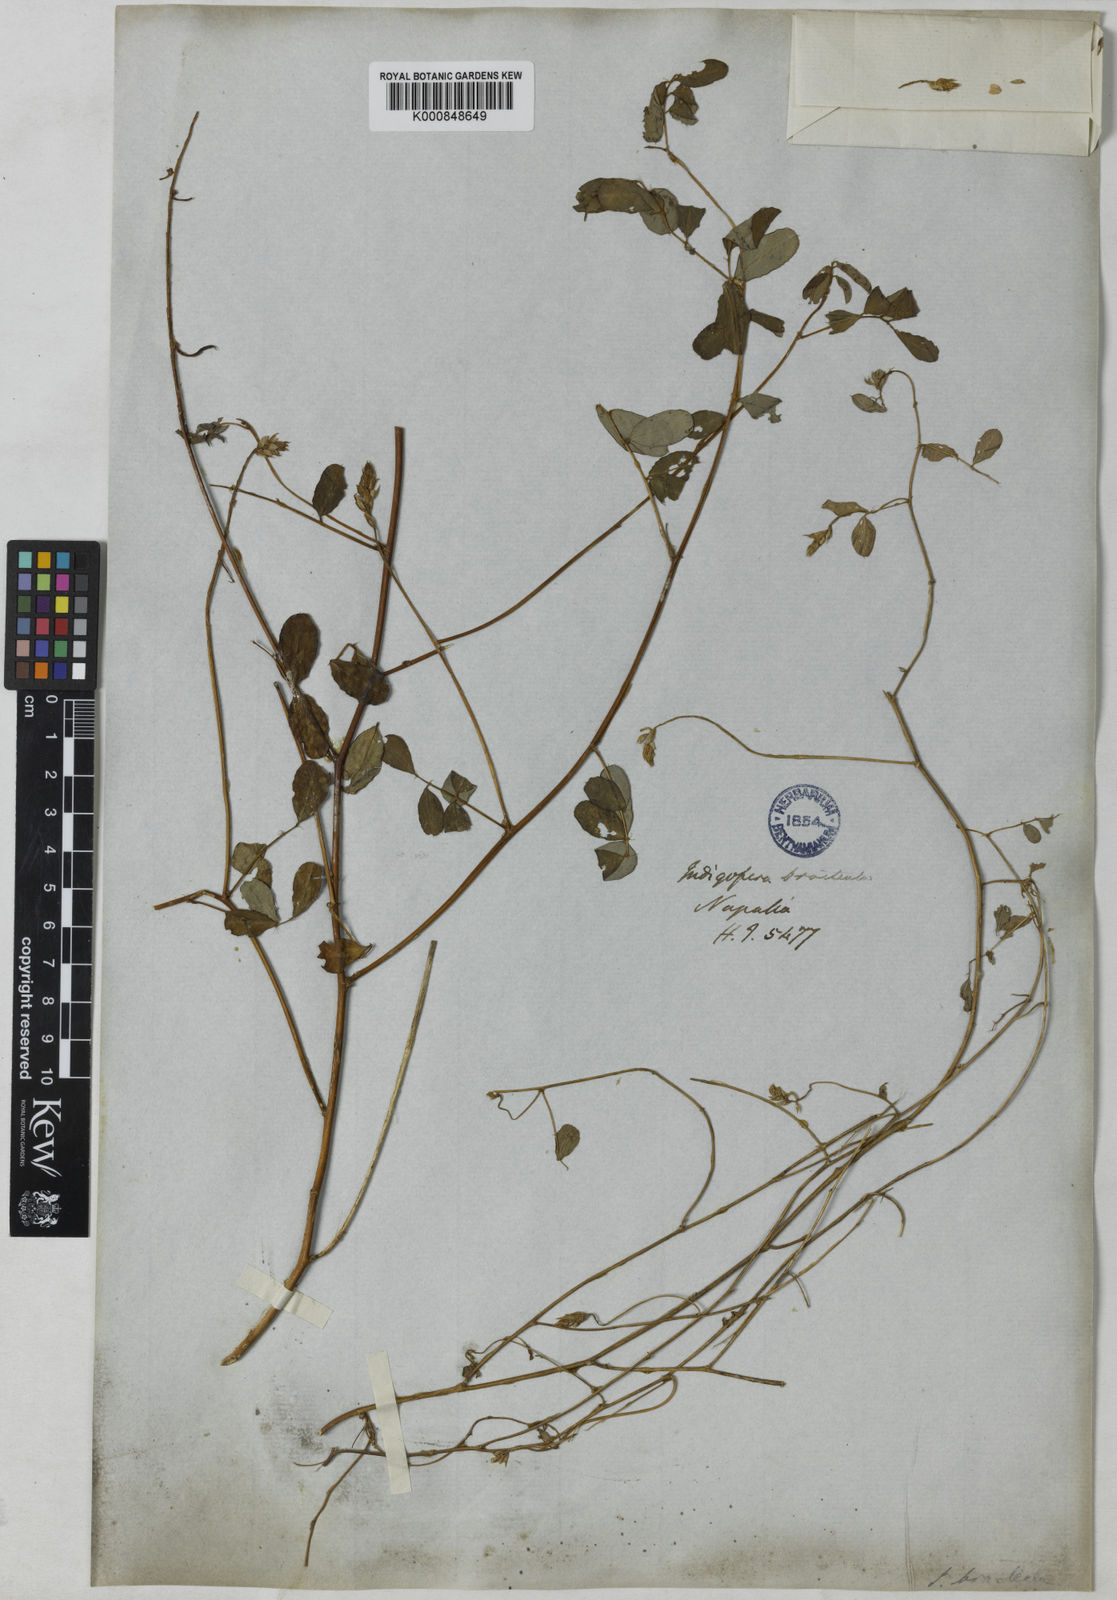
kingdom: Plantae
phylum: Tracheophyta
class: Magnoliopsida
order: Fabales
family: Fabaceae
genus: Indigofera
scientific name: Indigofera bracteata
